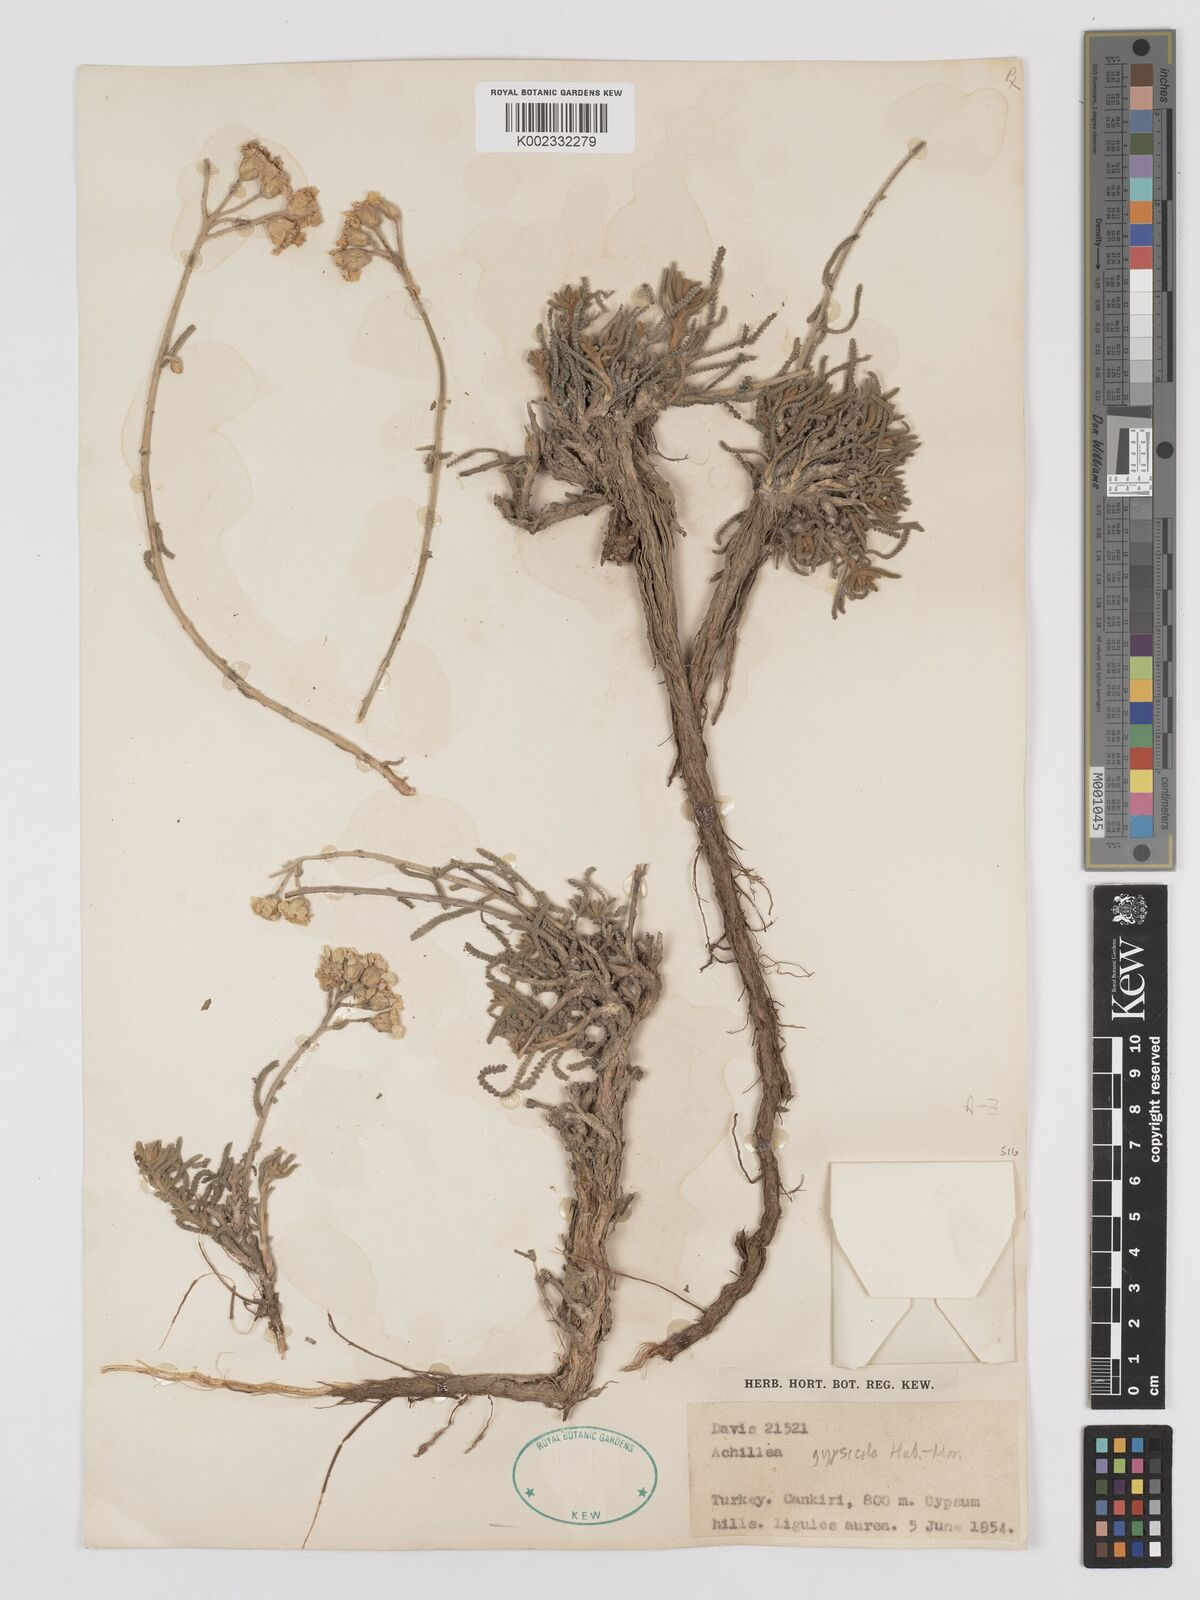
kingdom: Plantae
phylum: Tracheophyta
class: Magnoliopsida
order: Asterales
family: Asteraceae
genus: Achillea
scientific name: Achillea gypsicola
